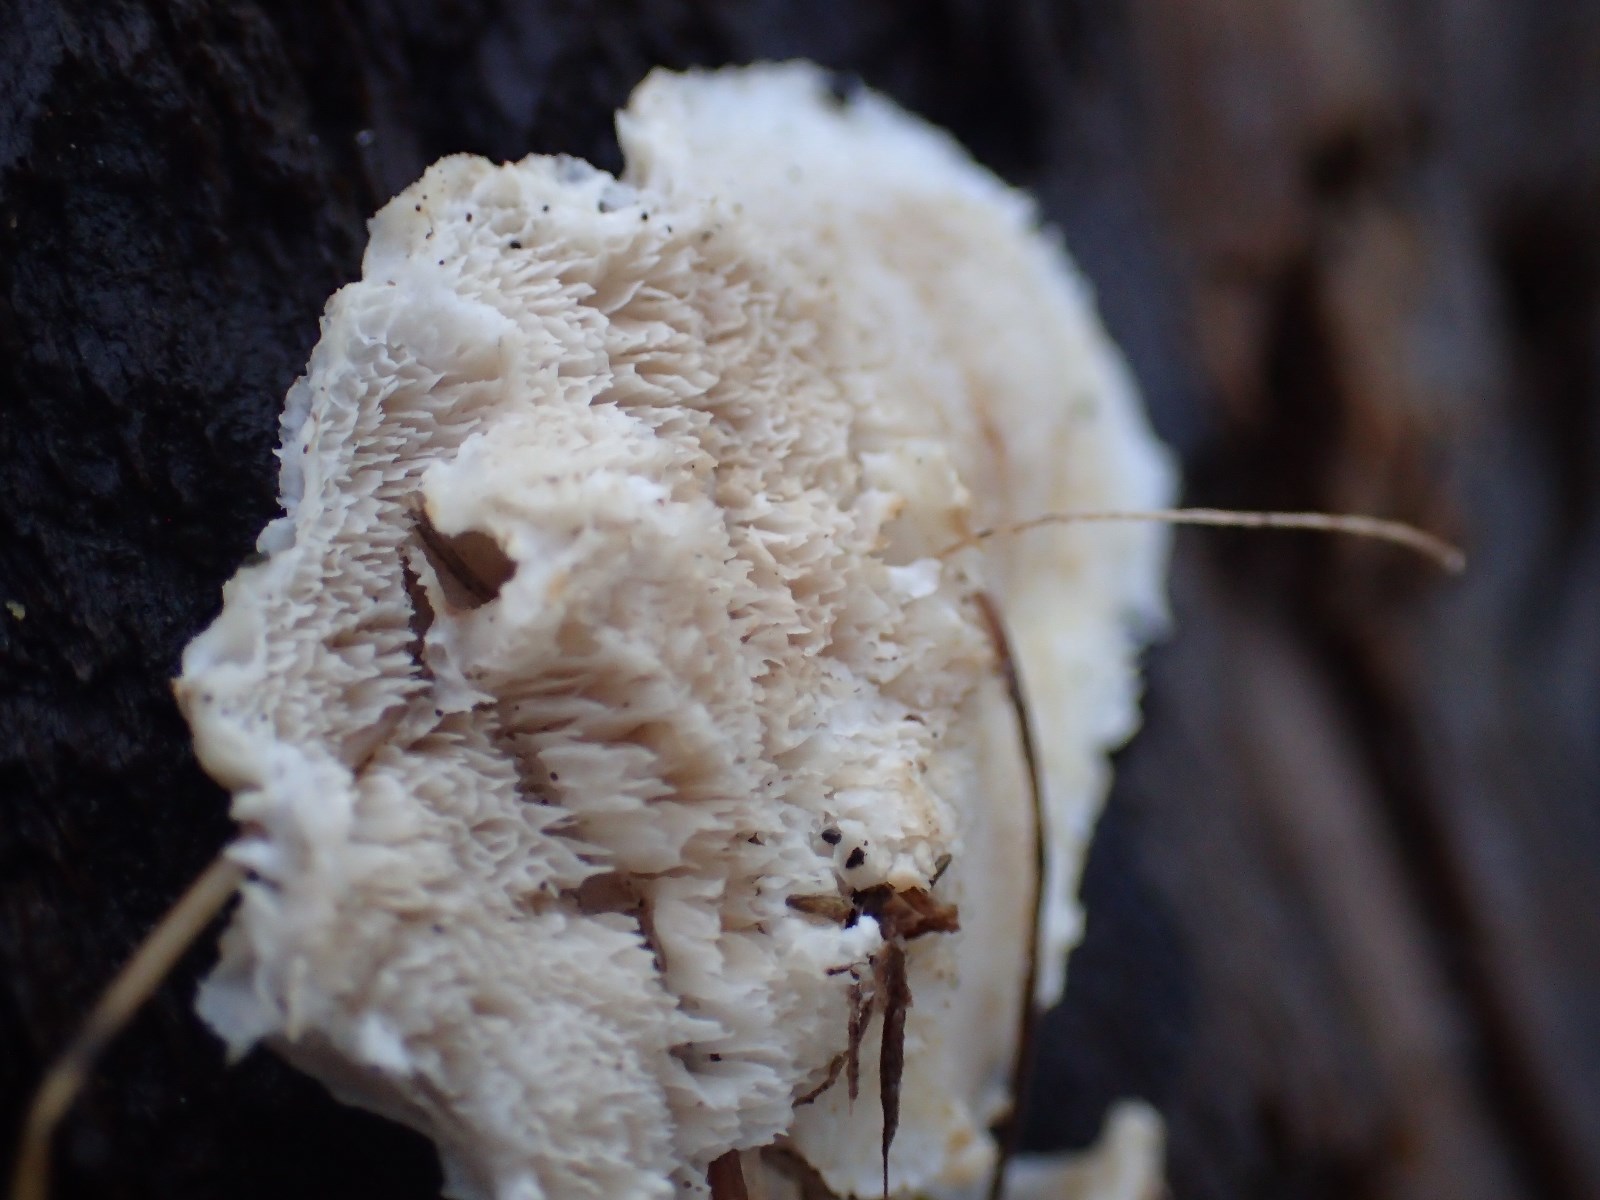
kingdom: Fungi
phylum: Basidiomycota
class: Agaricomycetes
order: Polyporales
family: Gelatoporiaceae
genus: Cinereomyces
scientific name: Cinereomyces lindbladii
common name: almindelig gråporesvamp
